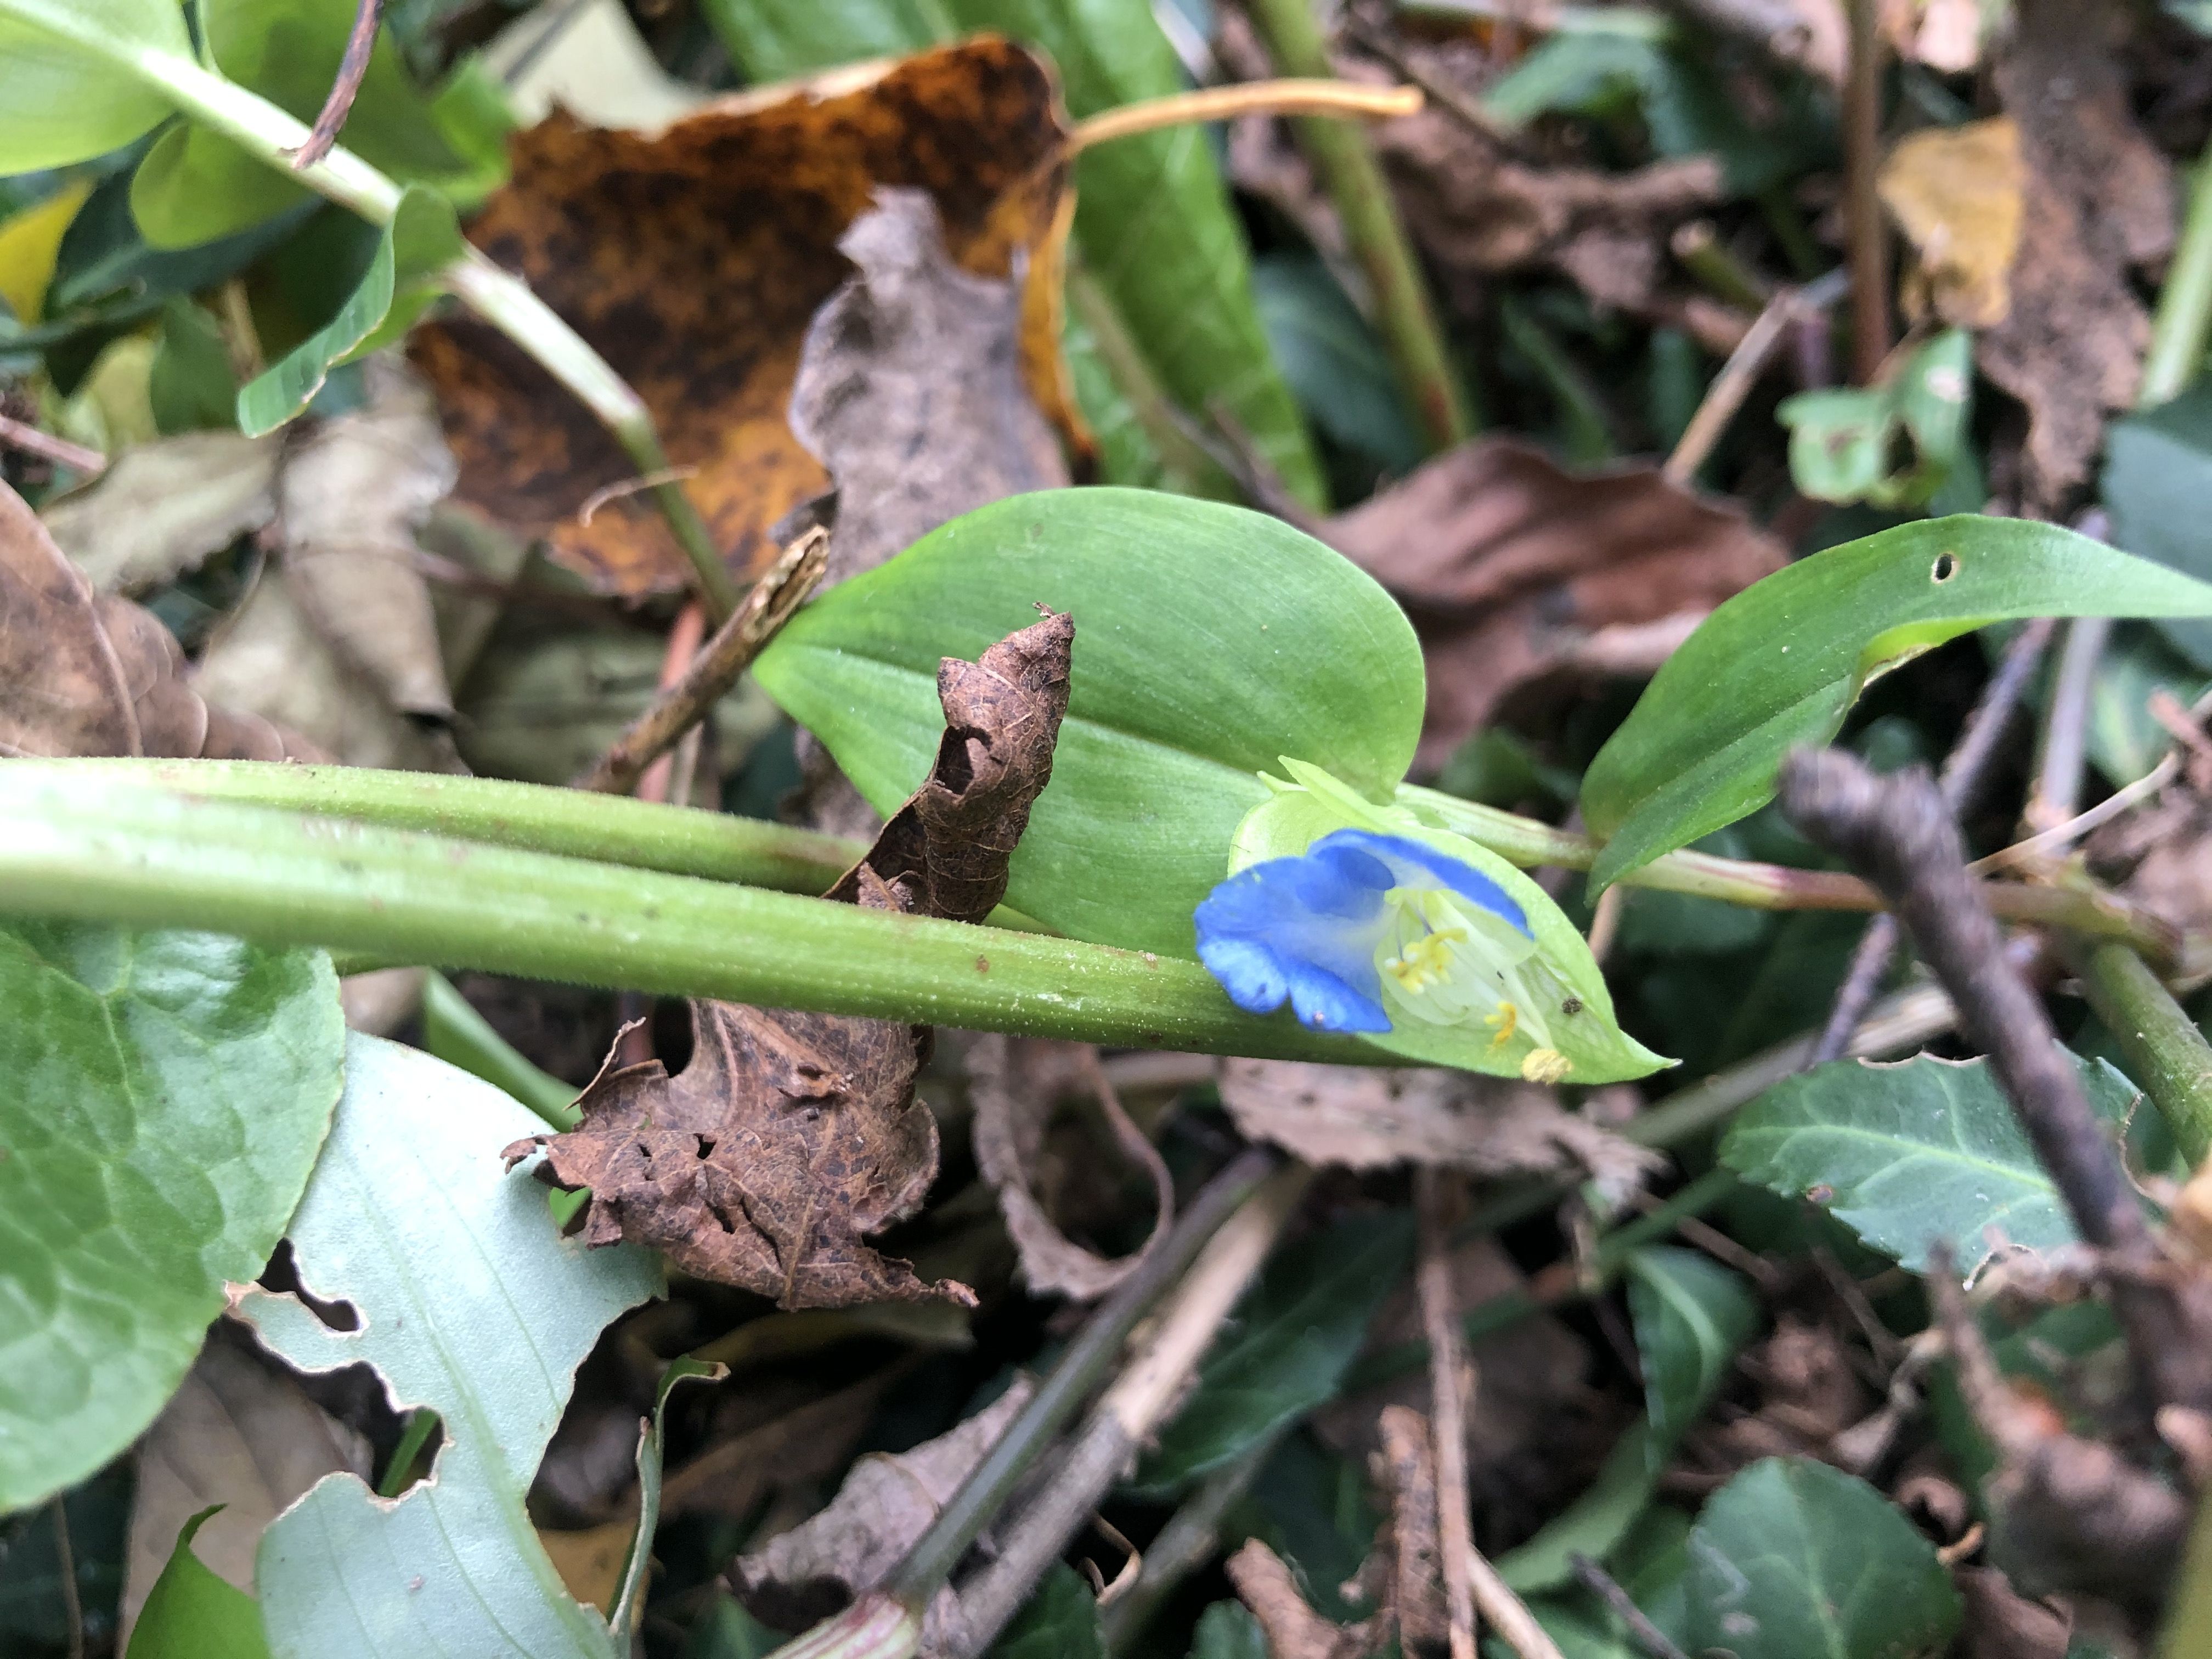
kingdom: Plantae
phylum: Tracheophyta
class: Liliopsida
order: Commelinales
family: Commelinaceae
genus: Commelina
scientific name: Commelina communis
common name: Asiatic dayflower
